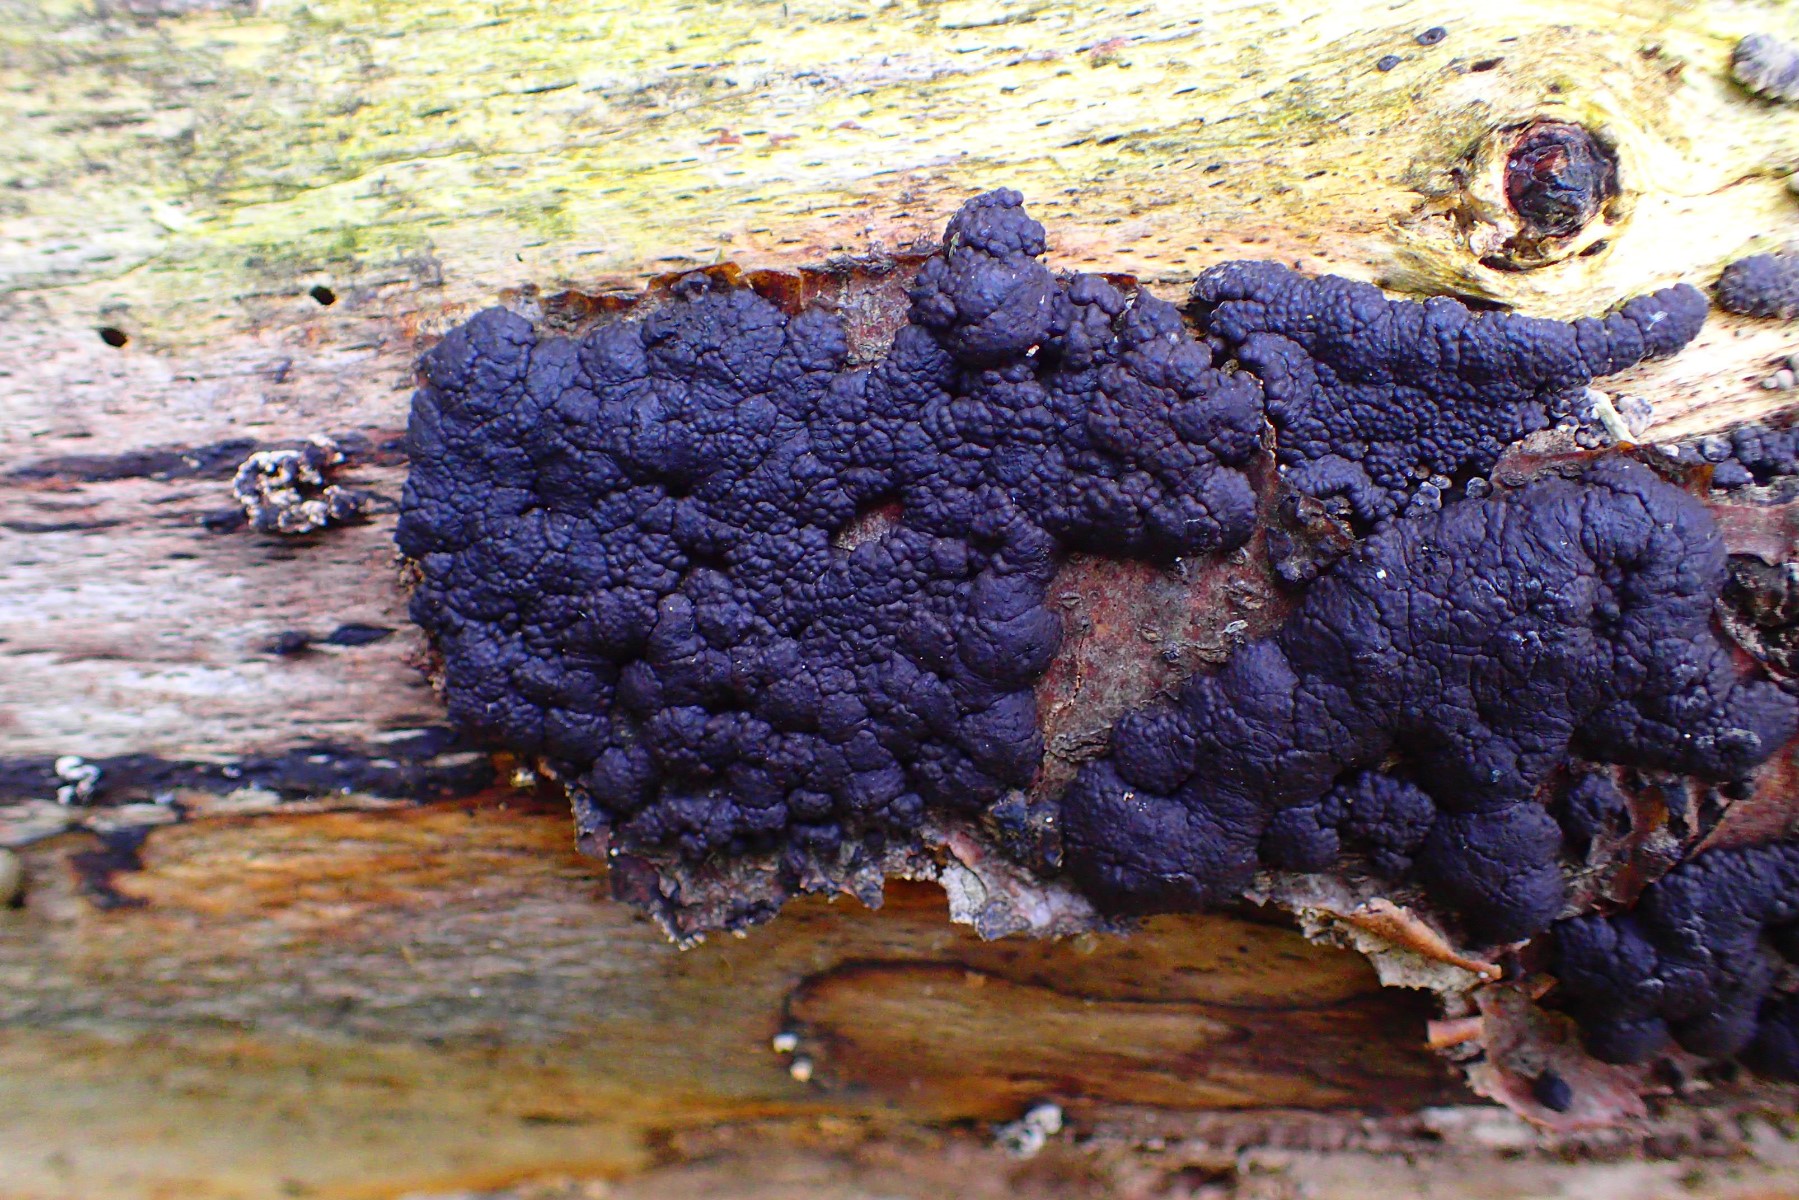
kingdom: Fungi
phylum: Ascomycota
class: Sordariomycetes
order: Xylariales
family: Hypoxylaceae
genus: Jackrogersella
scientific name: Jackrogersella cohaerens
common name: sammenflydende kulbær
